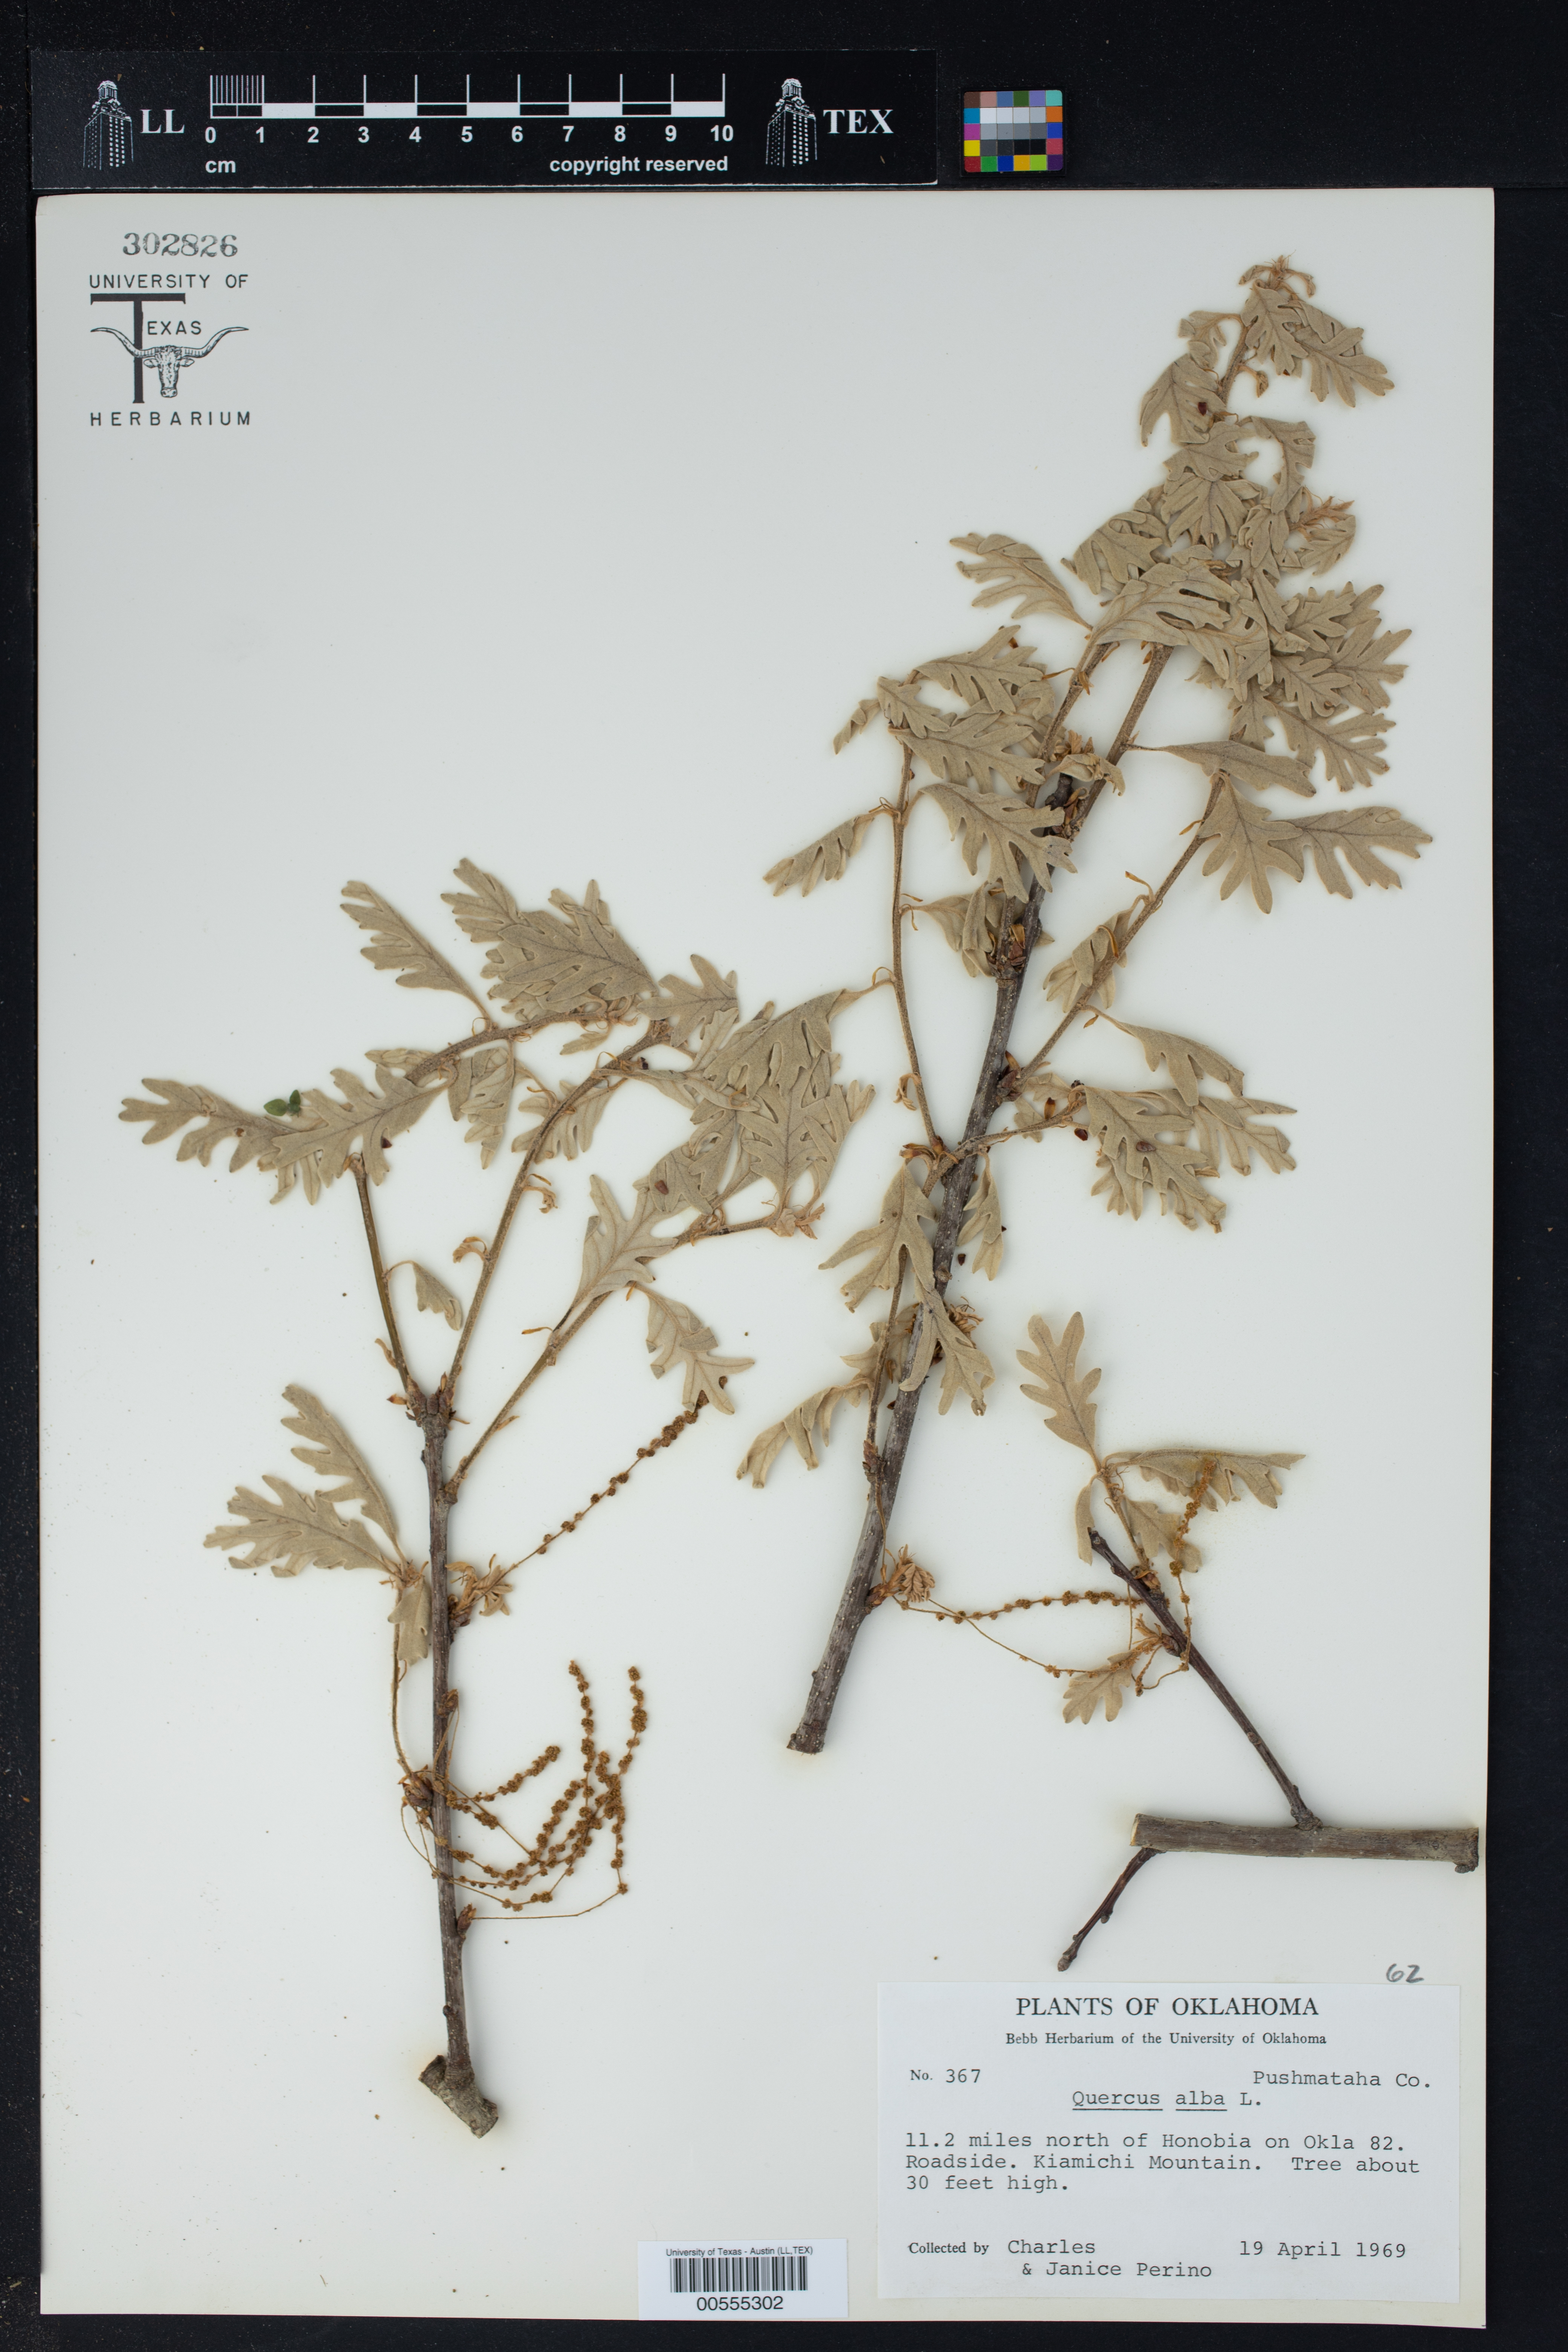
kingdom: Plantae
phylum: Tracheophyta
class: Magnoliopsida
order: Fagales
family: Fagaceae
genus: Quercus
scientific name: Quercus alba
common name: White oak
